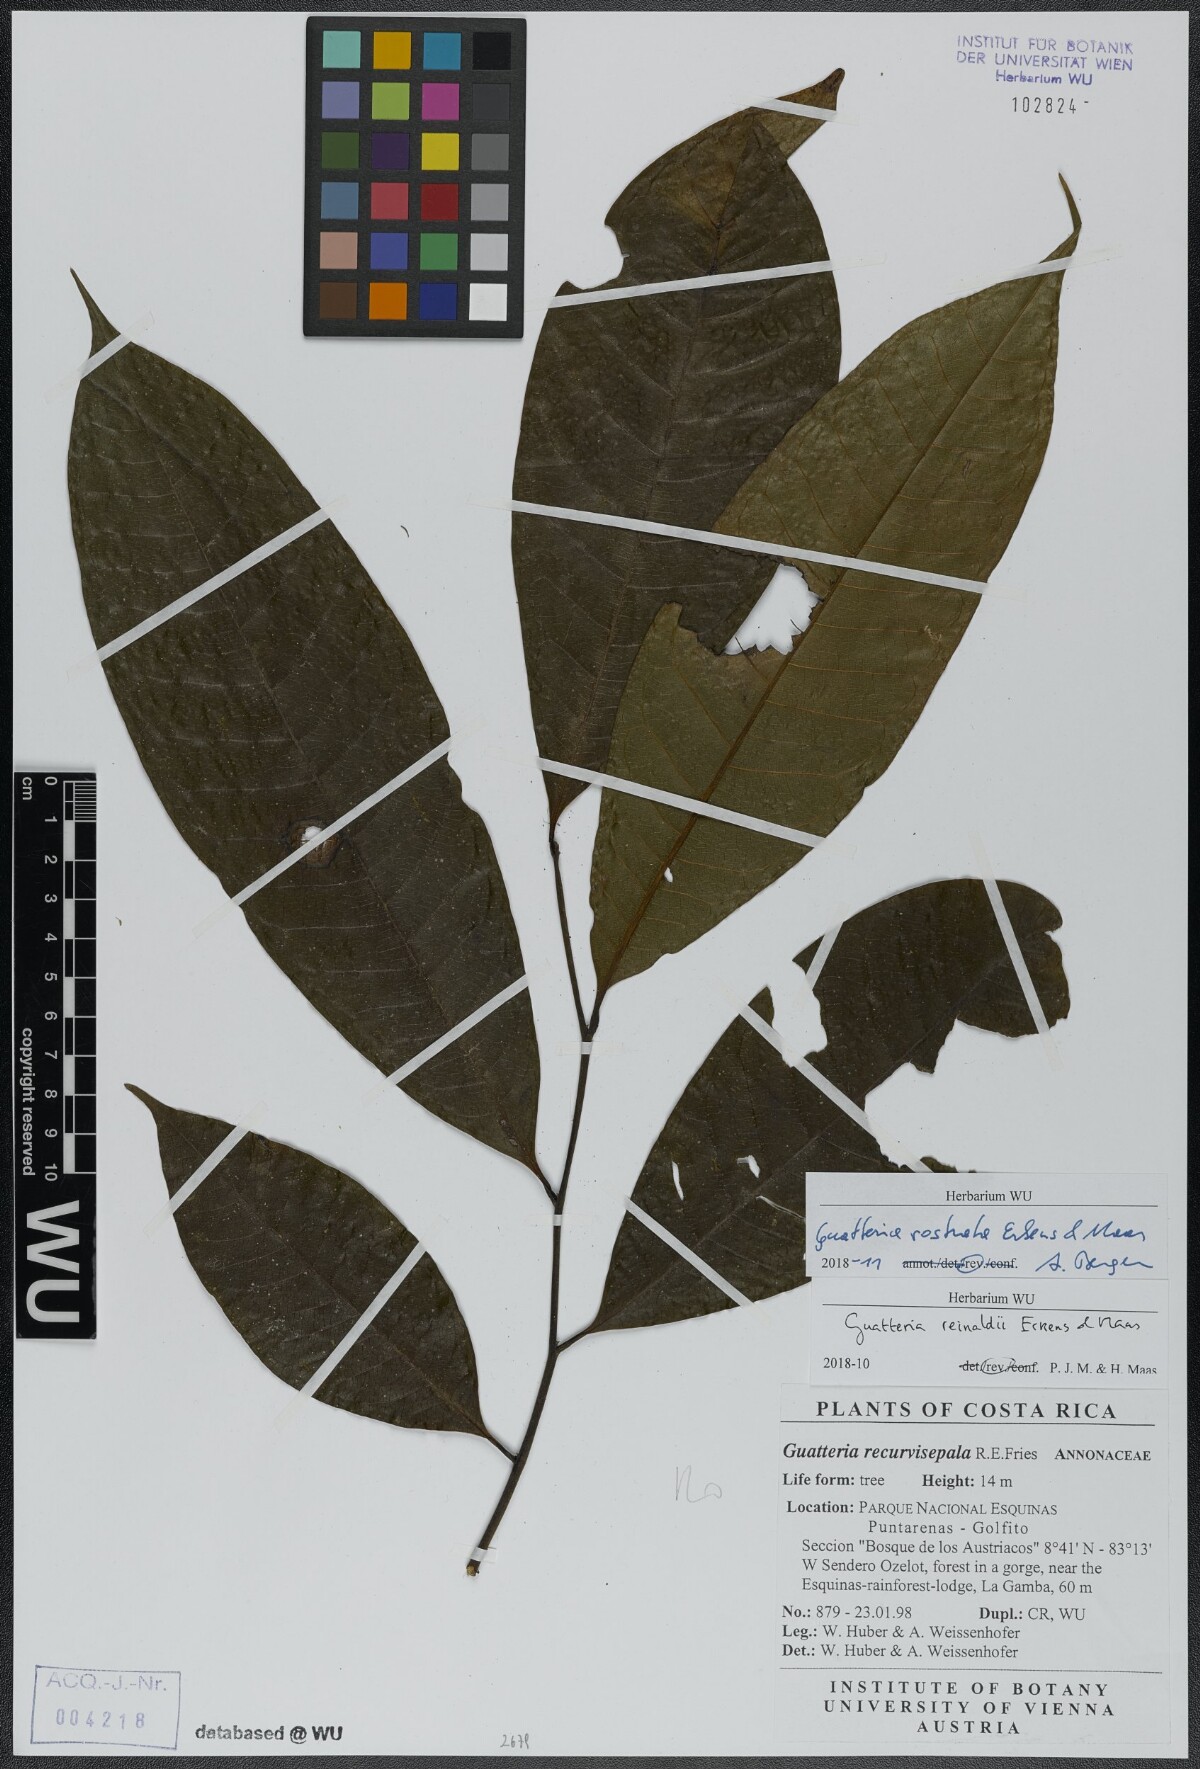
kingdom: Plantae
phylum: Tracheophyta
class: Magnoliopsida
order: Magnoliales
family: Annonaceae
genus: Guatteria
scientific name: Guatteria reinaldii
